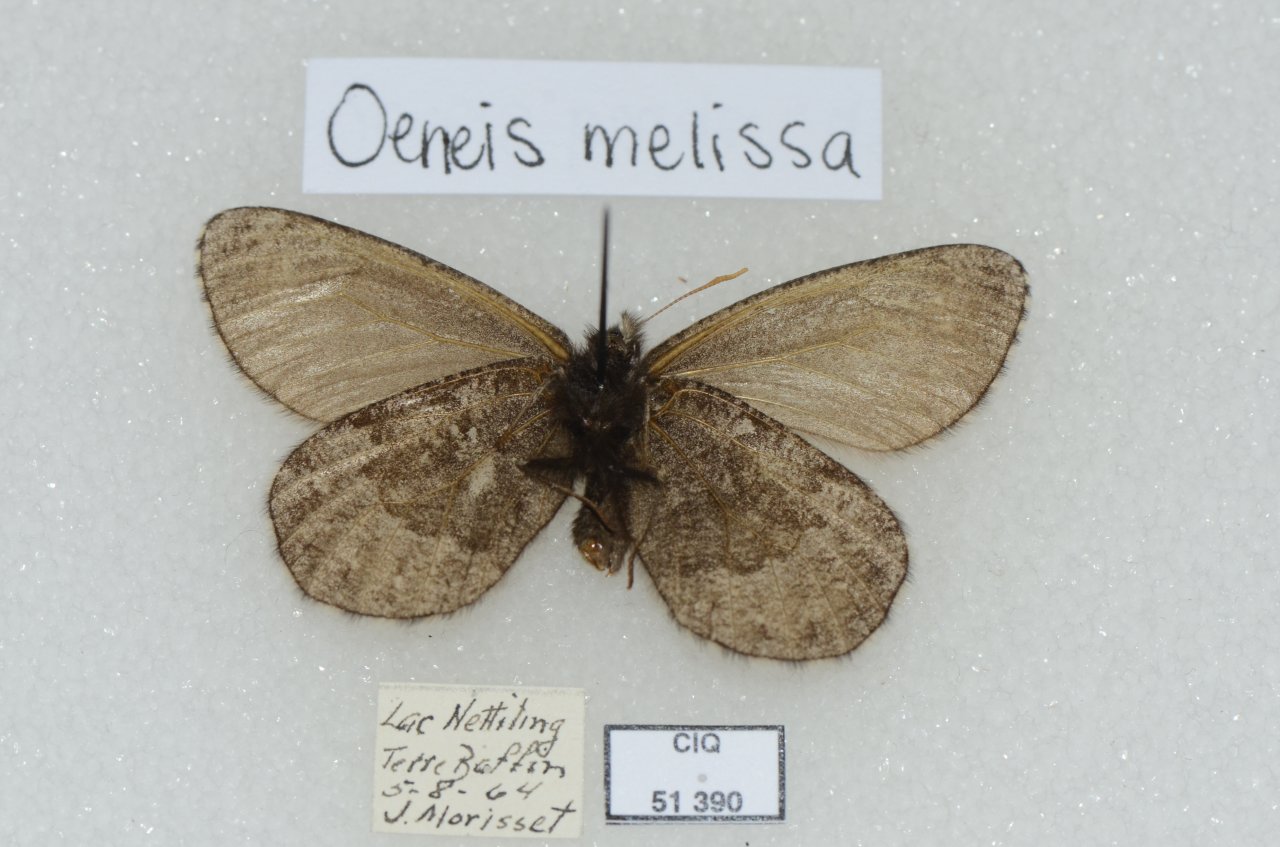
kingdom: Animalia
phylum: Arthropoda
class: Insecta
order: Lepidoptera
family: Nymphalidae
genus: Oeneis
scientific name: Oeneis melissa
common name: Melissa Arctic
